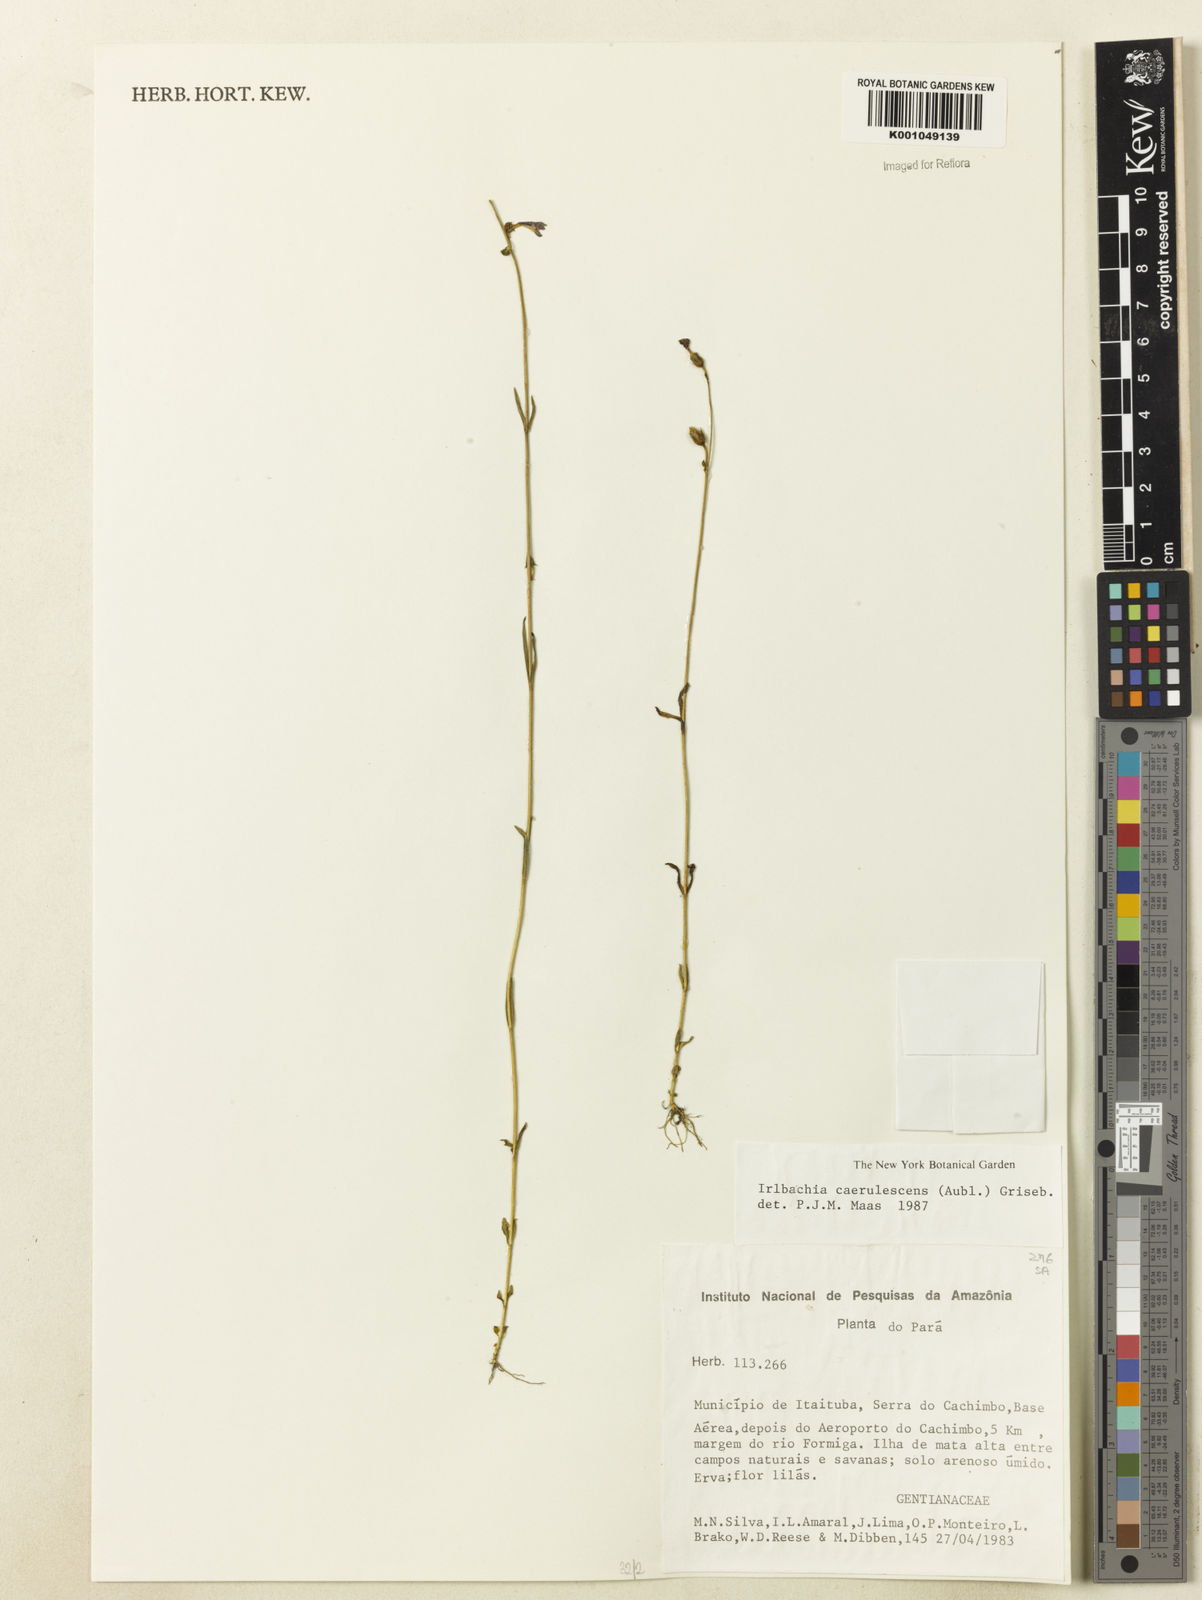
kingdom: Plantae
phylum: Tracheophyta
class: Magnoliopsida
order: Gentianales
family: Gentianaceae
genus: Tetrapollinia
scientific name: Tetrapollinia caerulescens
